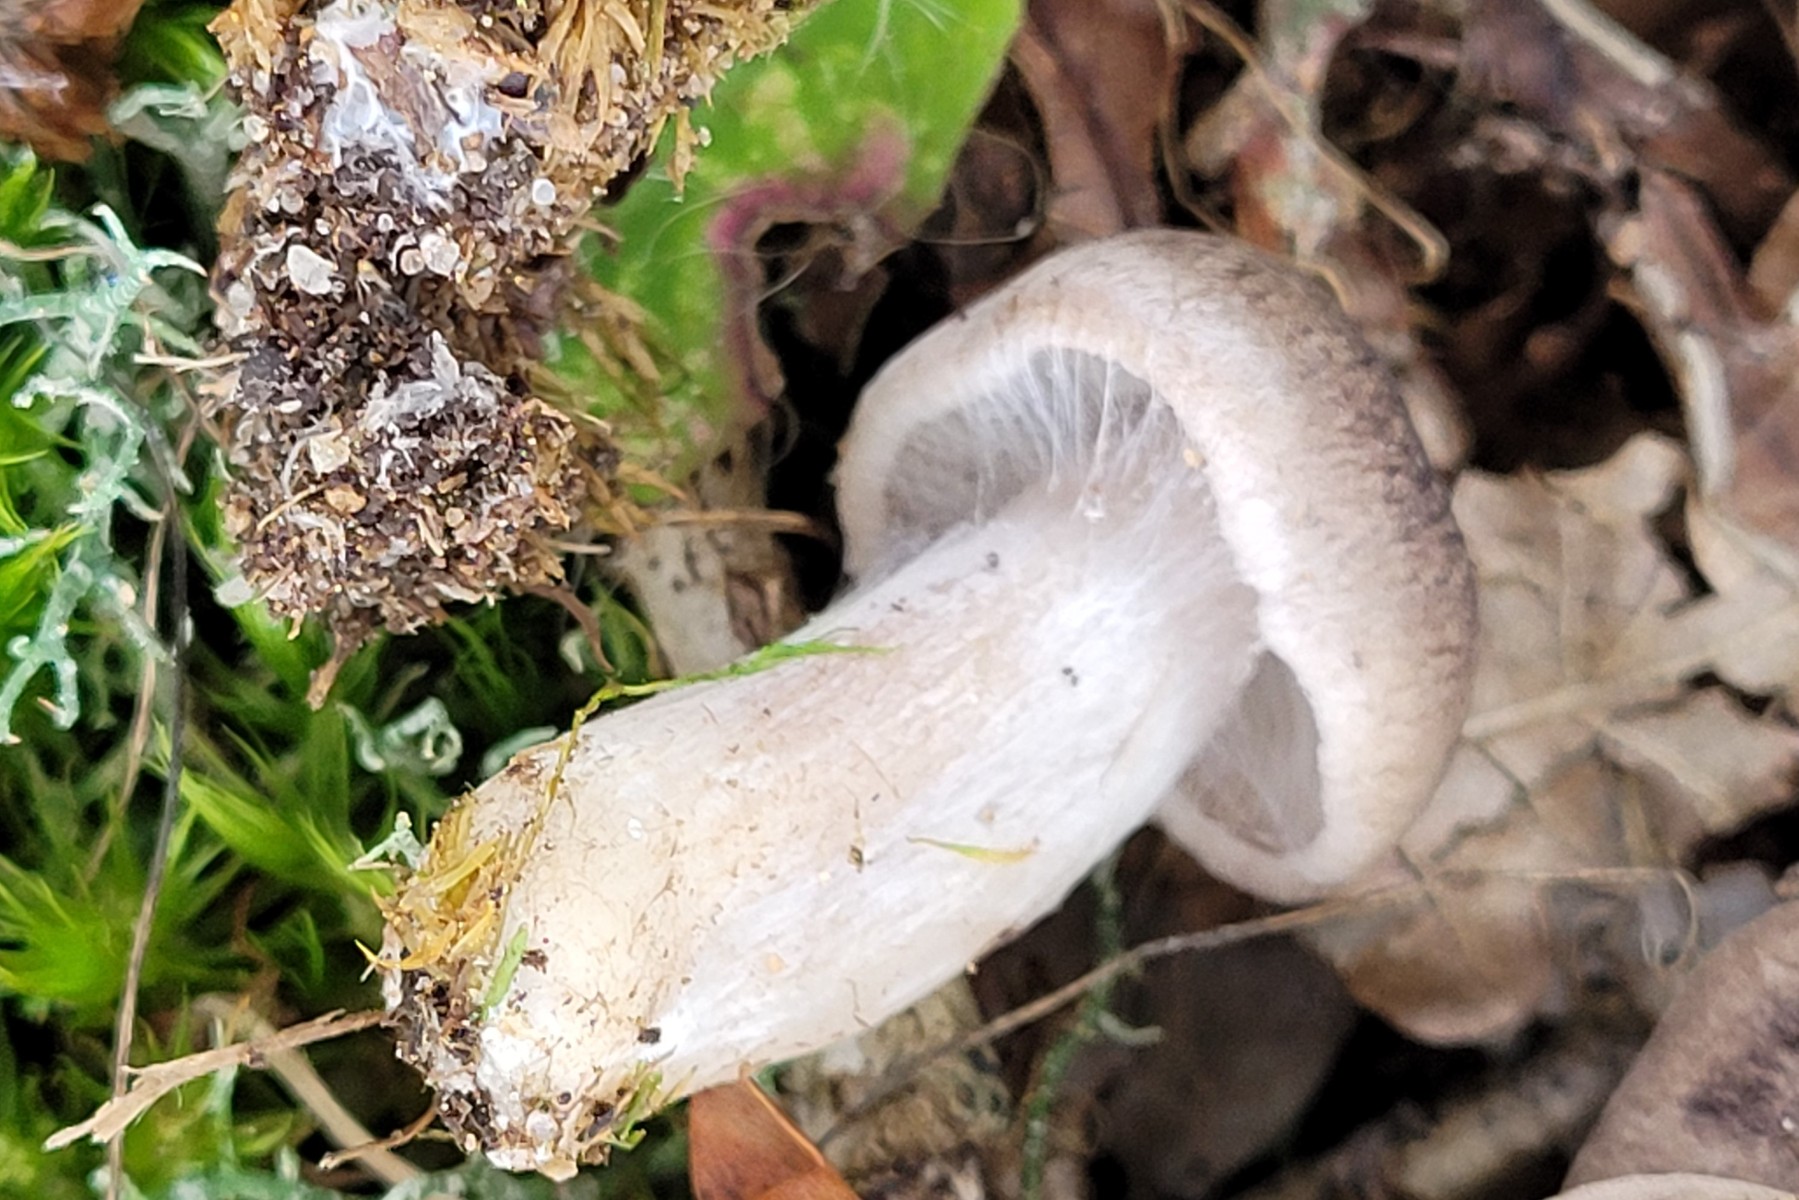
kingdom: Fungi
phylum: Basidiomycota
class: Agaricomycetes
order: Agaricales
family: Tricholomataceae
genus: Tricholoma
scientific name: Tricholoma argyraceum
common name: slør-ridderhat
